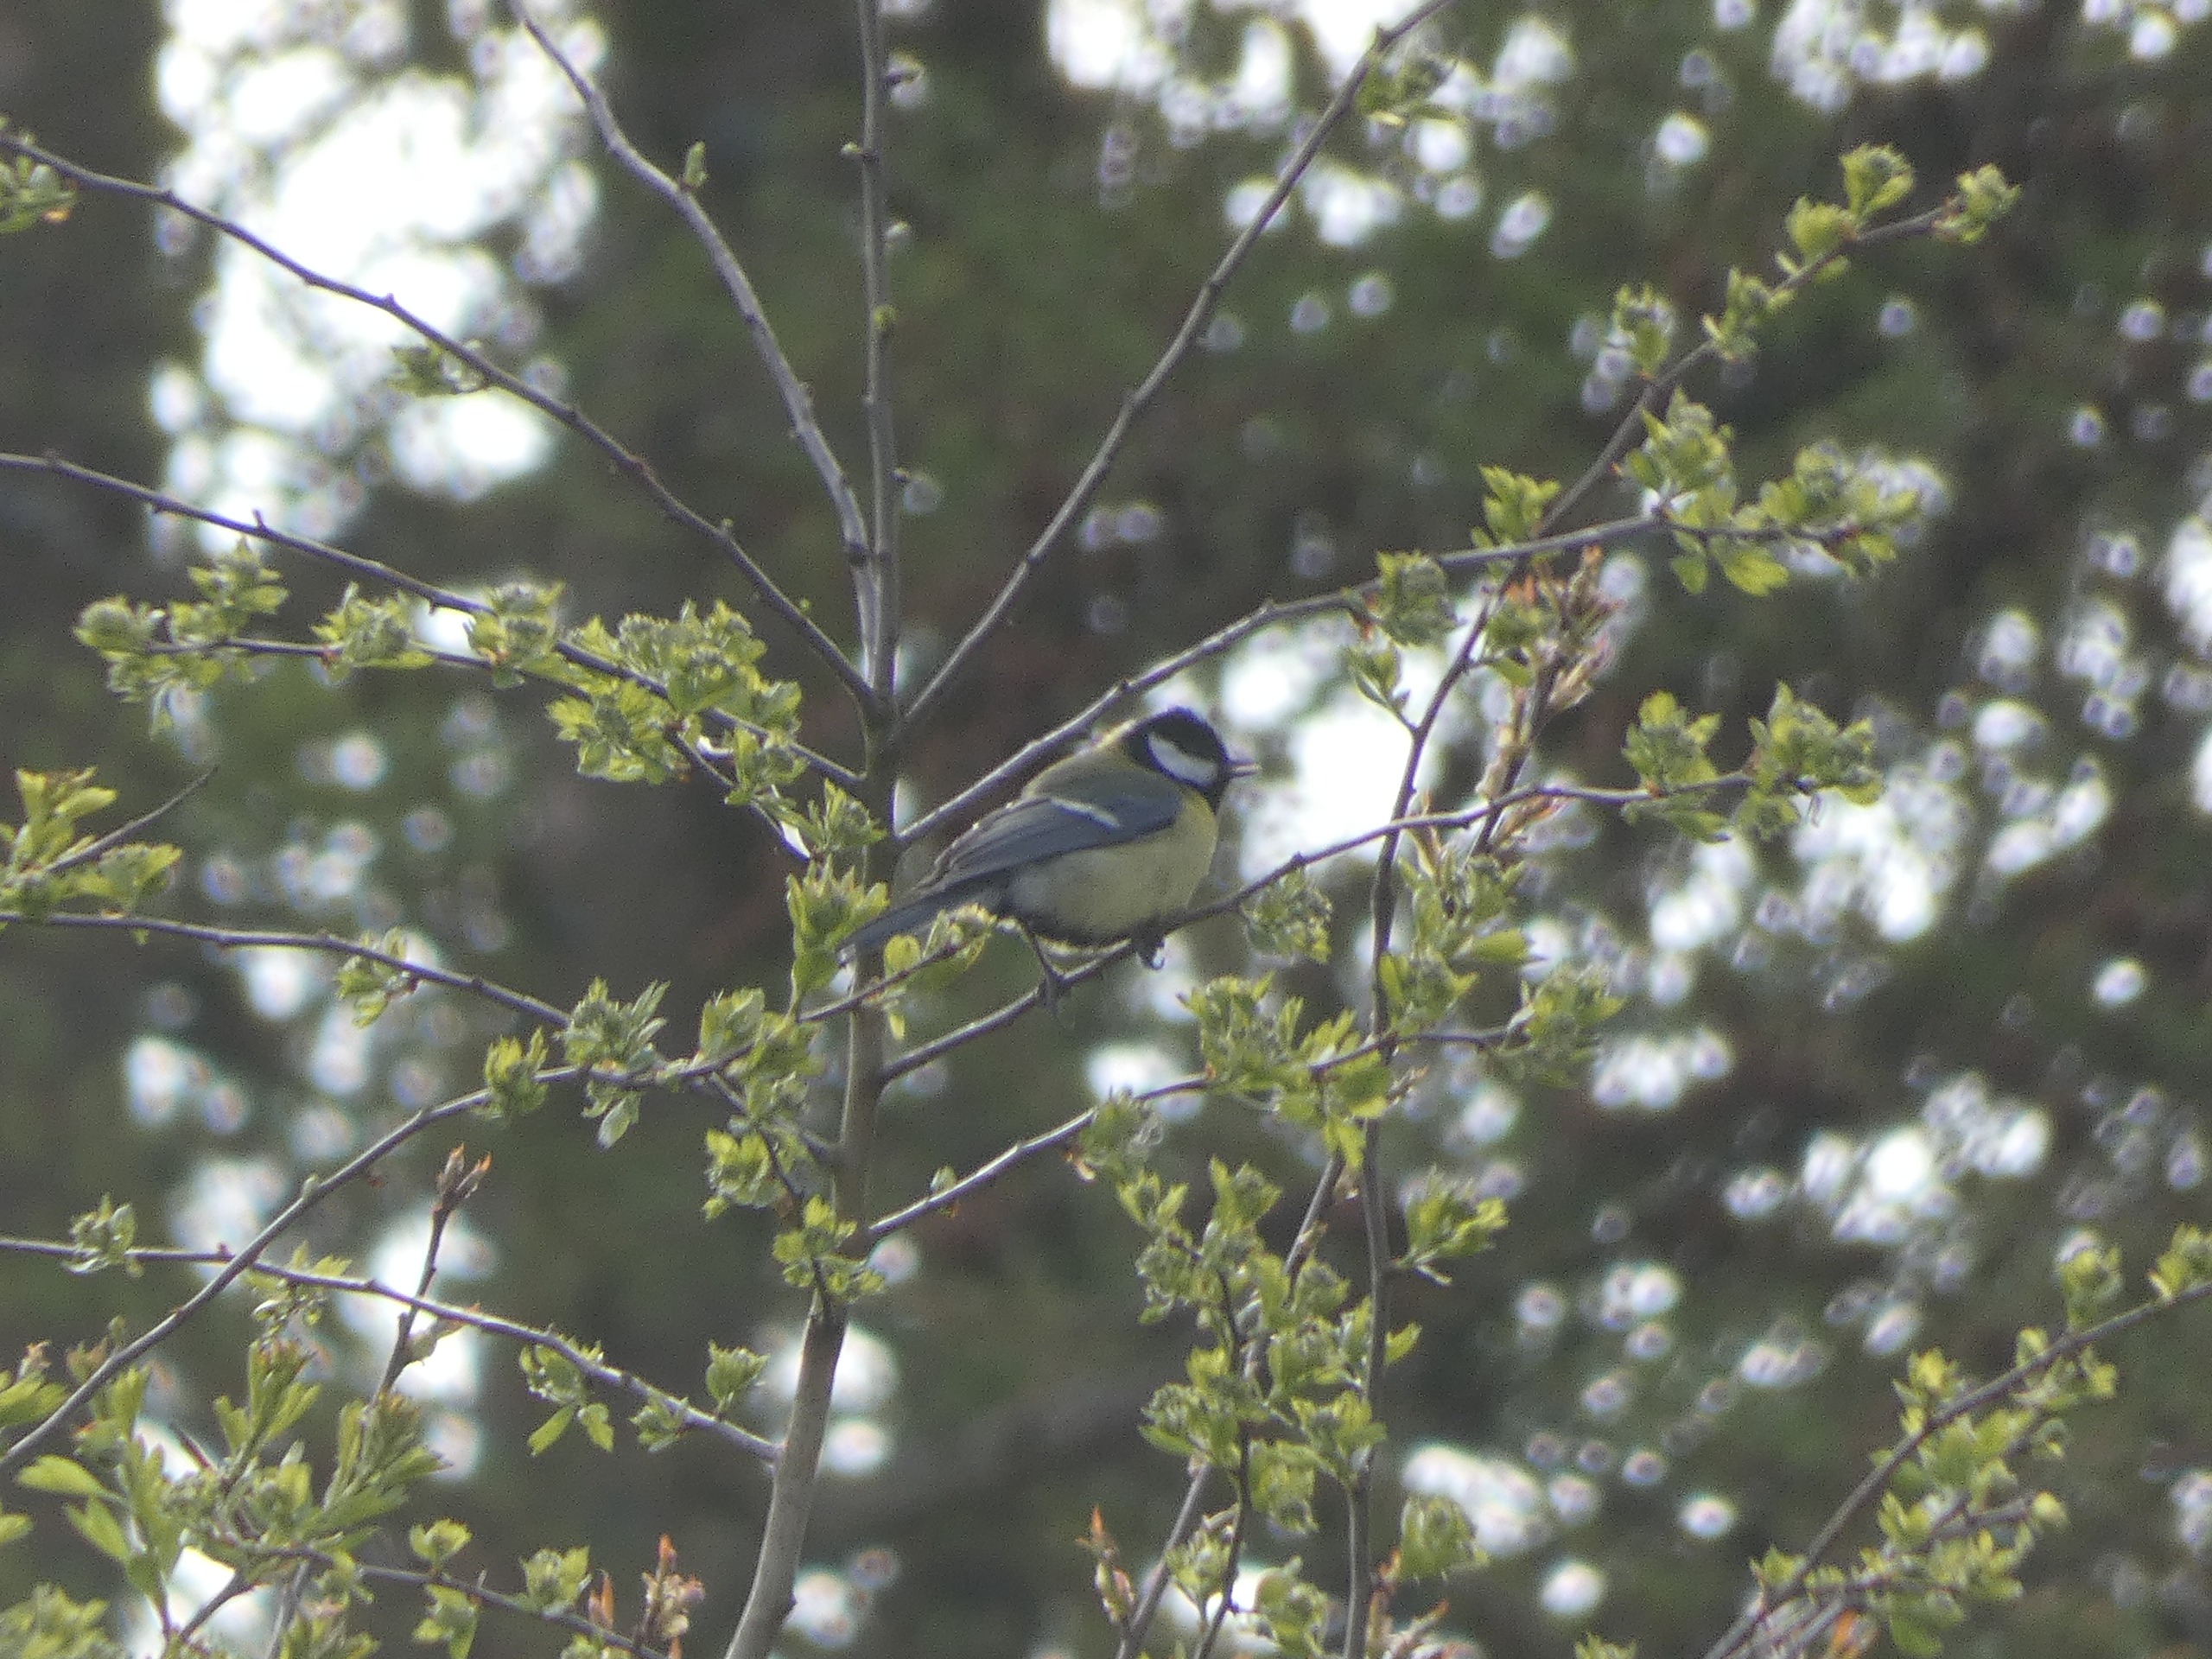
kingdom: Animalia
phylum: Chordata
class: Aves
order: Passeriformes
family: Paridae
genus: Parus
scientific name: Parus major
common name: Musvit
